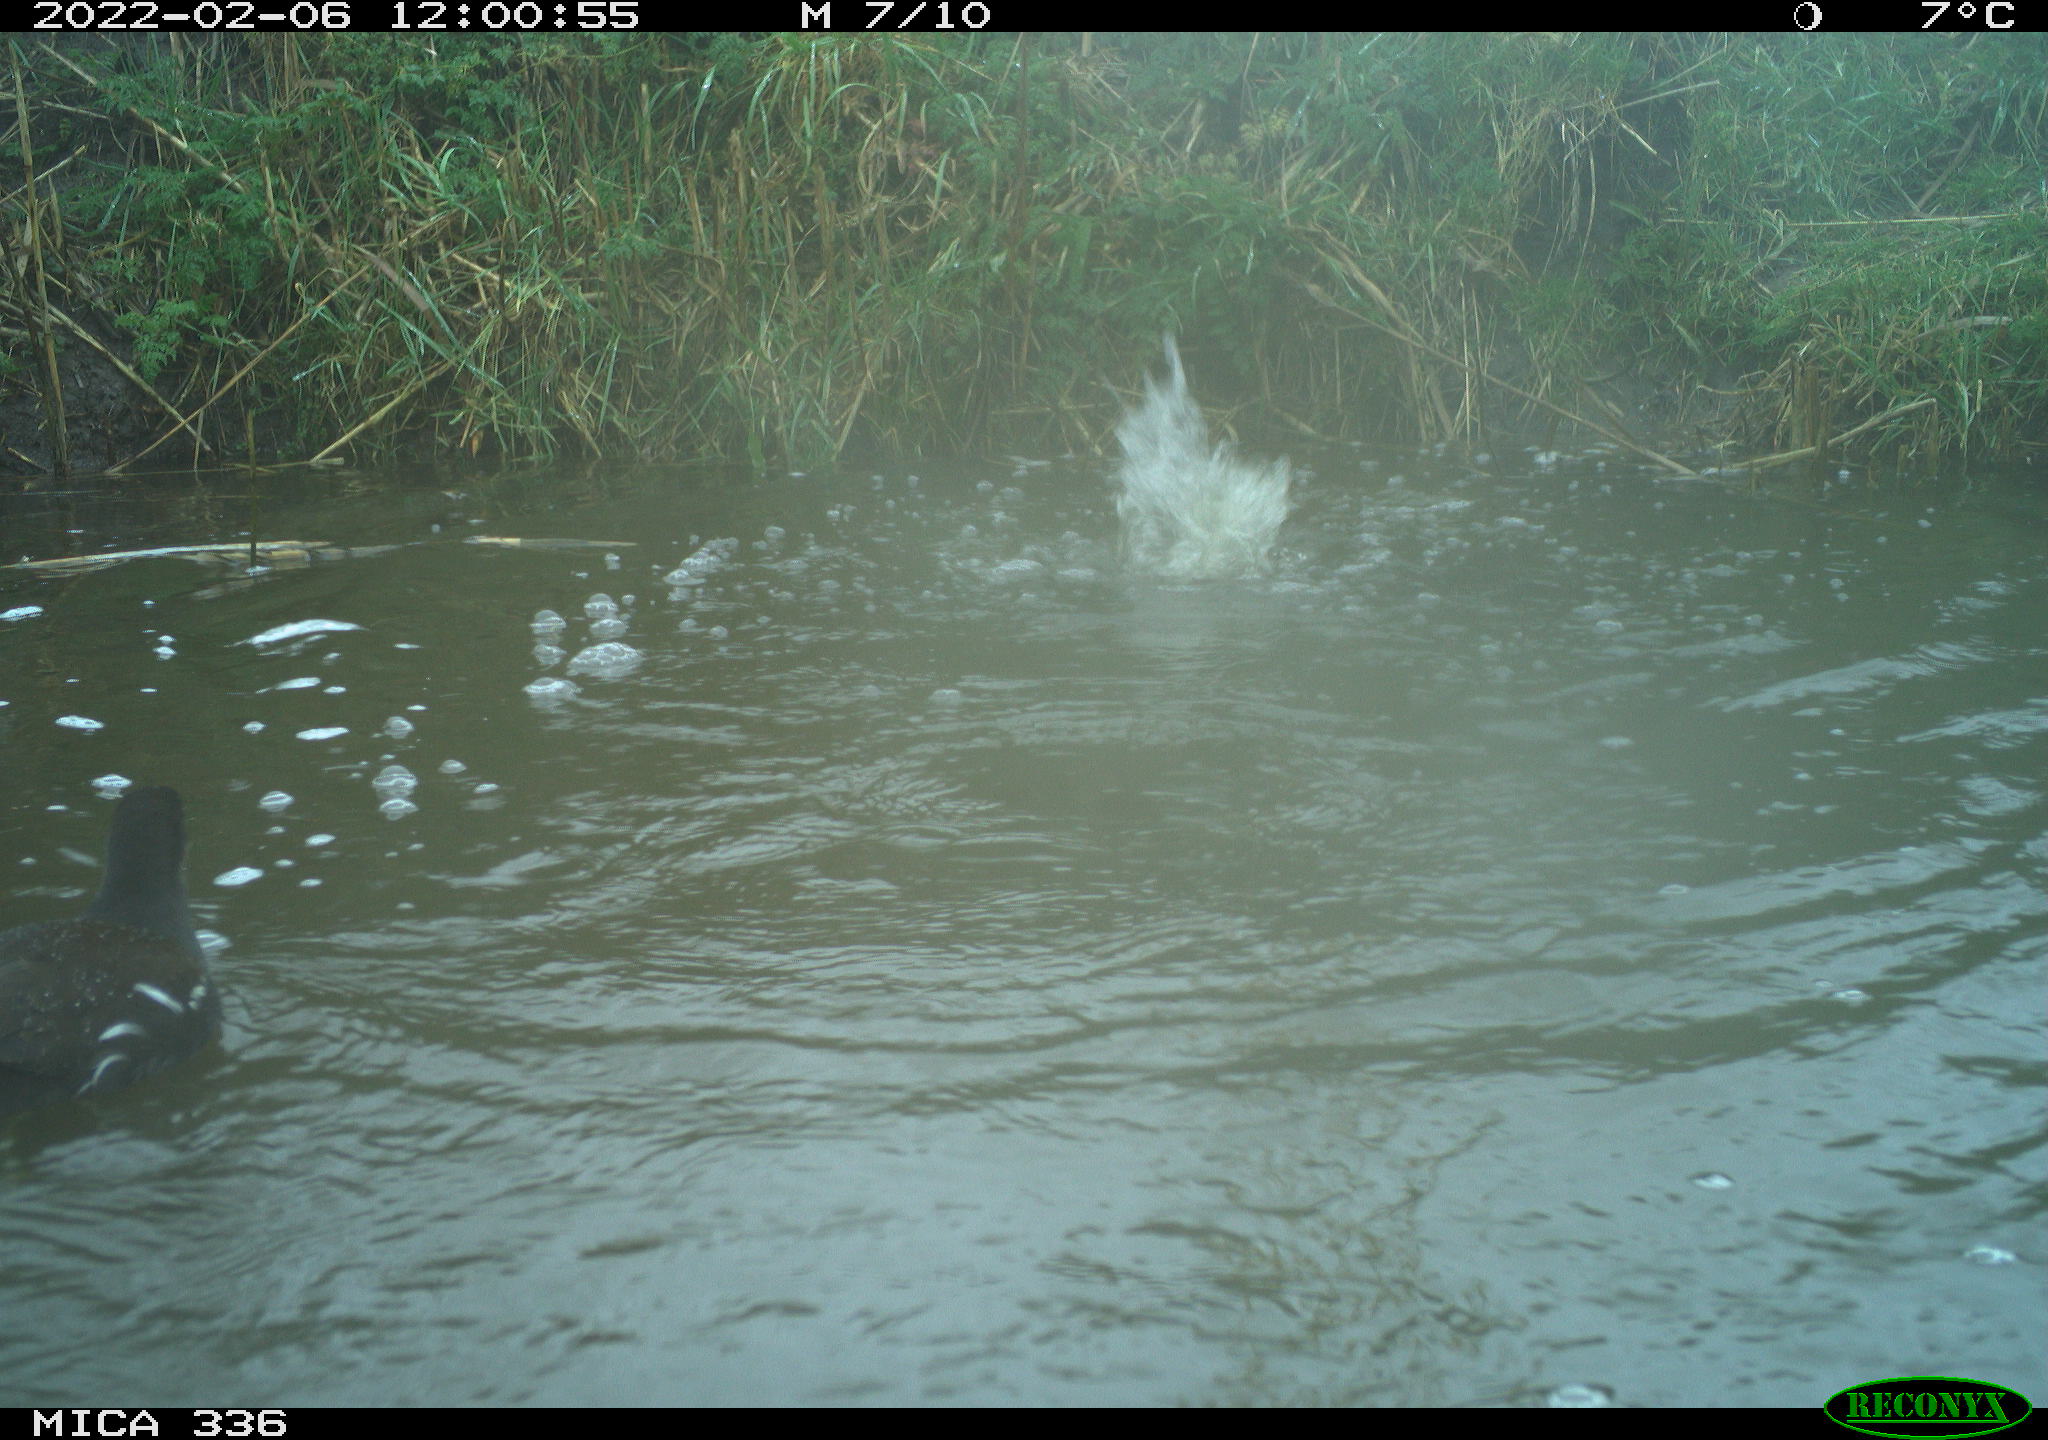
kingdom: Animalia
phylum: Chordata
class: Aves
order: Gruiformes
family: Rallidae
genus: Gallinula
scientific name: Gallinula chloropus
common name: Common moorhen
